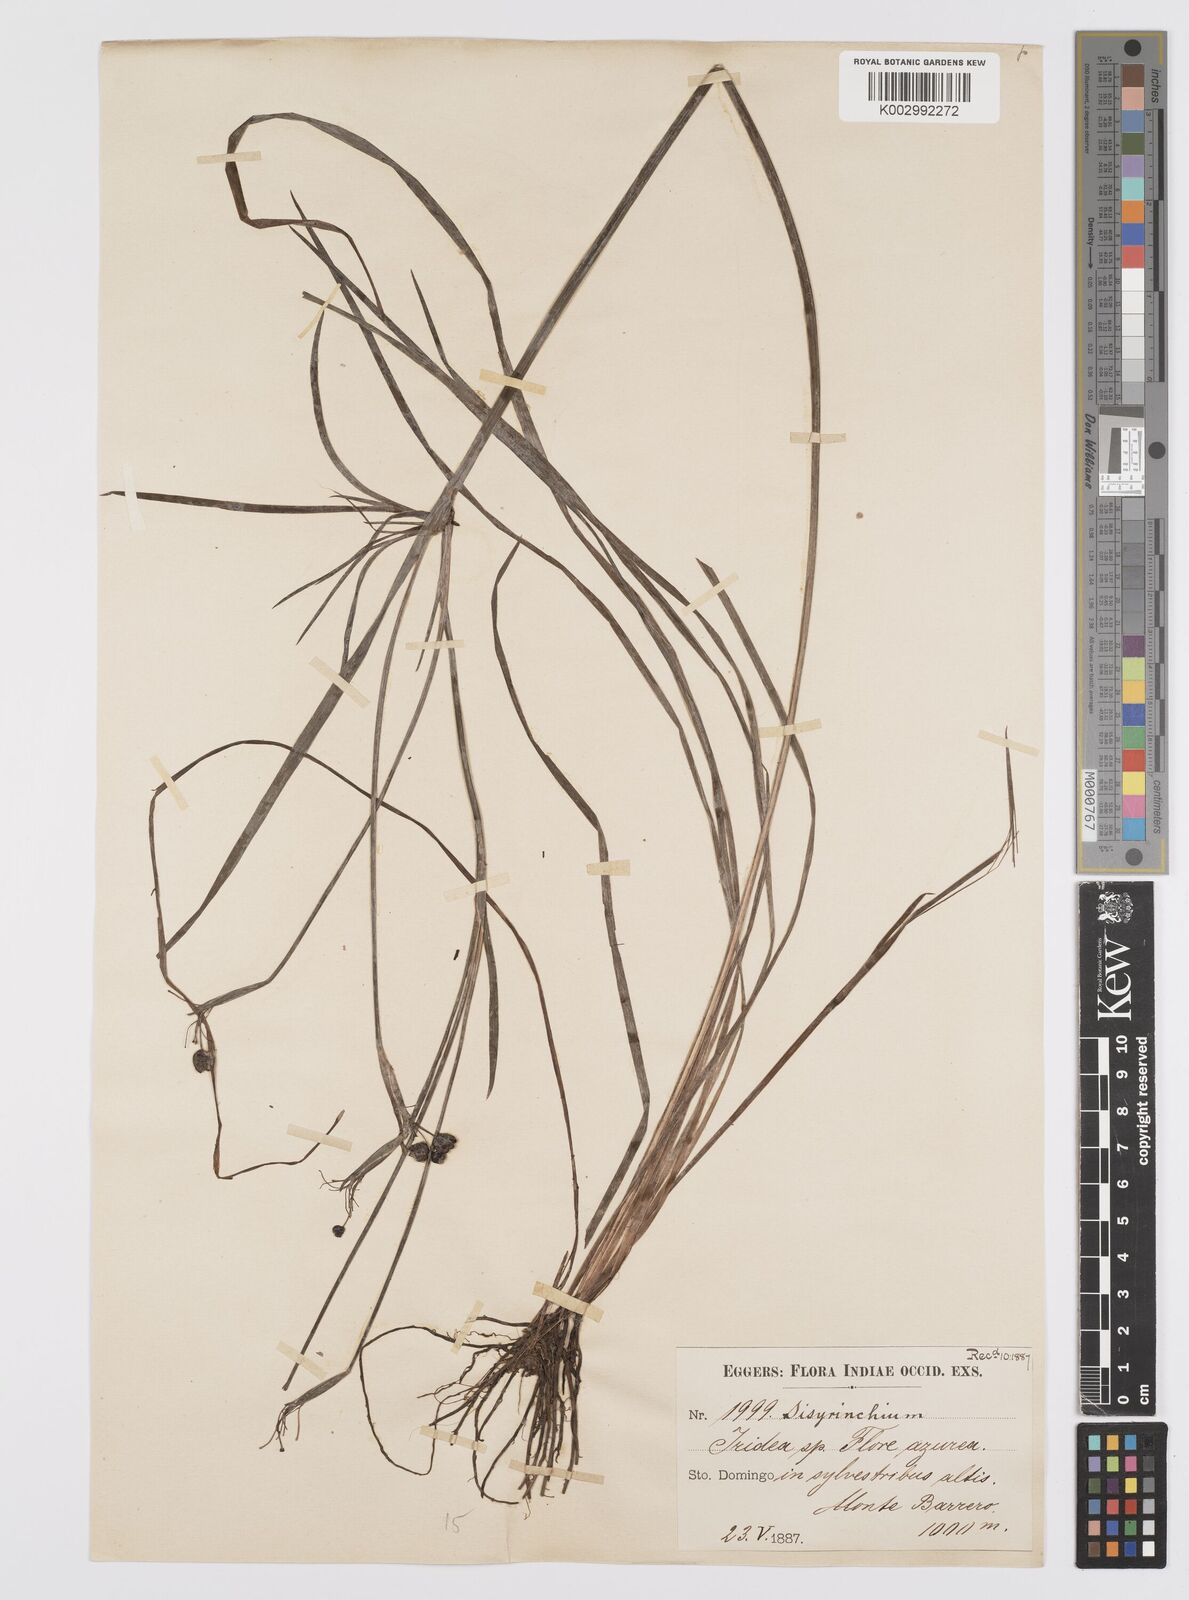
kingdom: Plantae
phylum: Tracheophyta
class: Liliopsida
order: Asparagales
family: Iridaceae
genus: Sisyrinchium
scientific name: Sisyrinchium bermudiana
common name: Blue-eyed-grass
